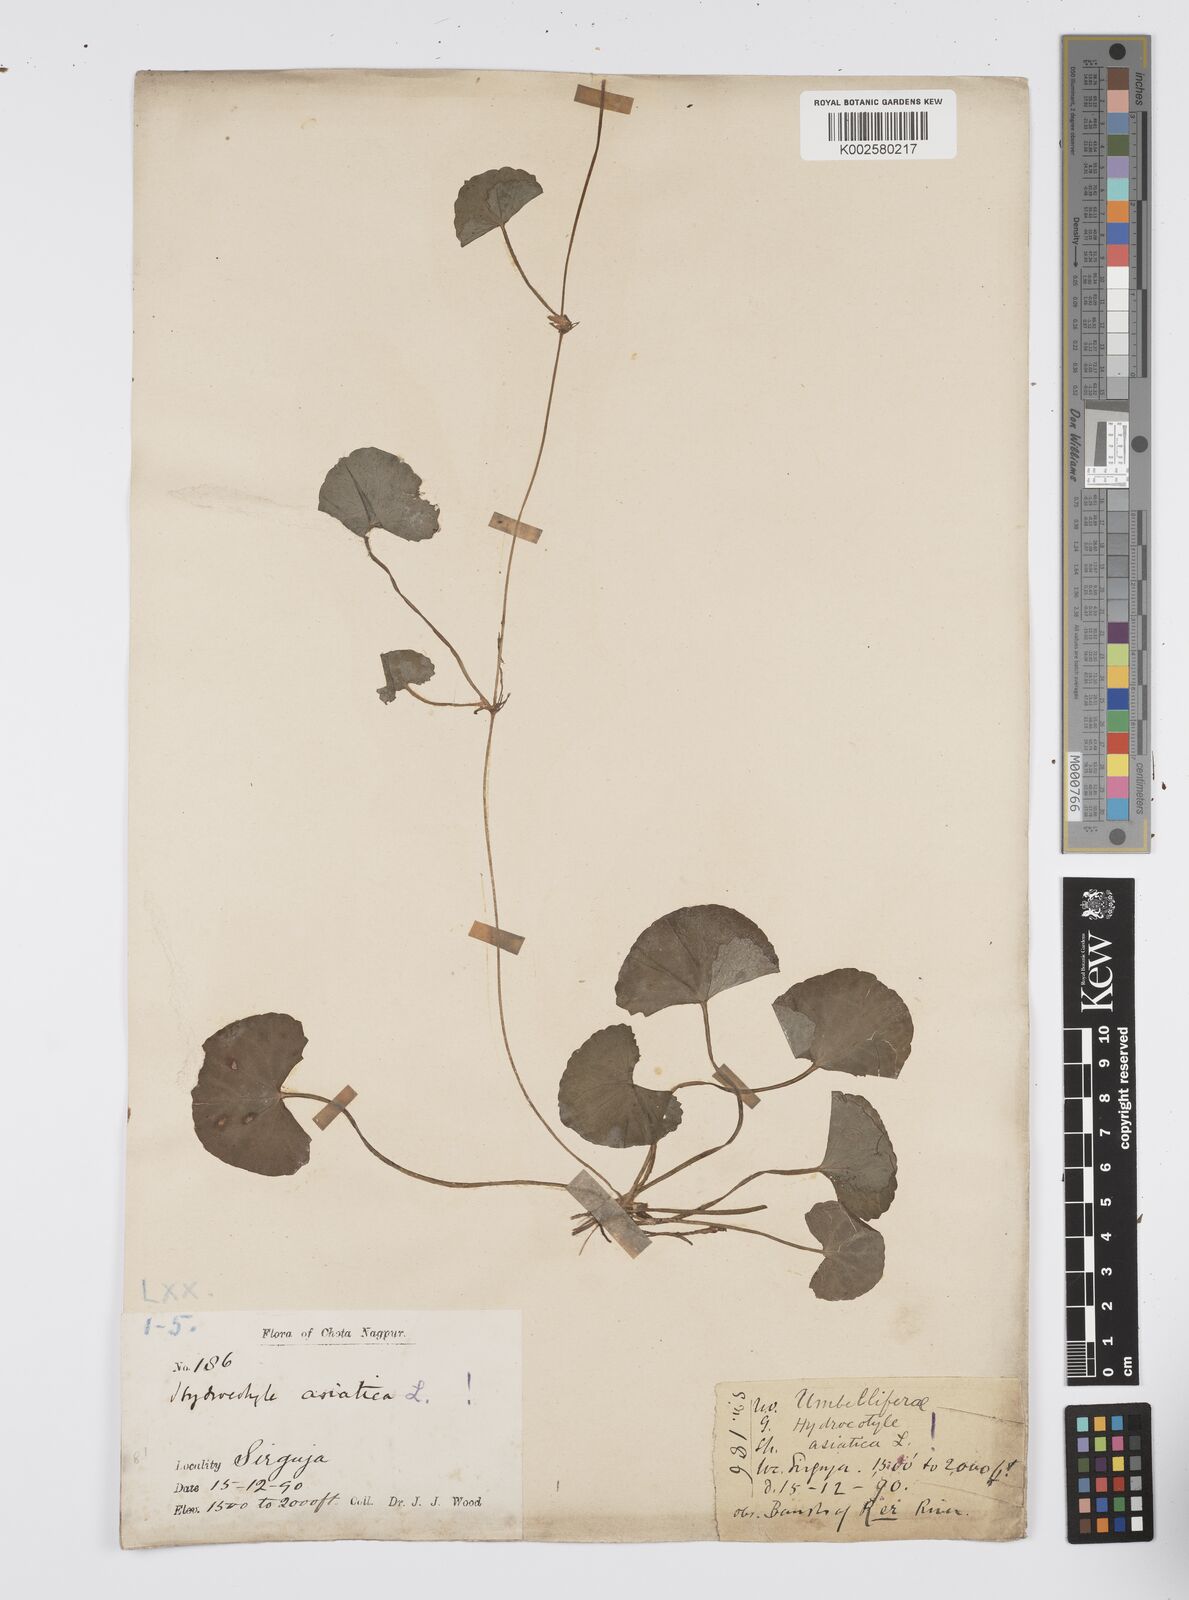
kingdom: Plantae
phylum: Tracheophyta
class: Magnoliopsida
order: Apiales
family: Apiaceae
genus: Centella
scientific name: Centella asiatica
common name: Spadeleaf
